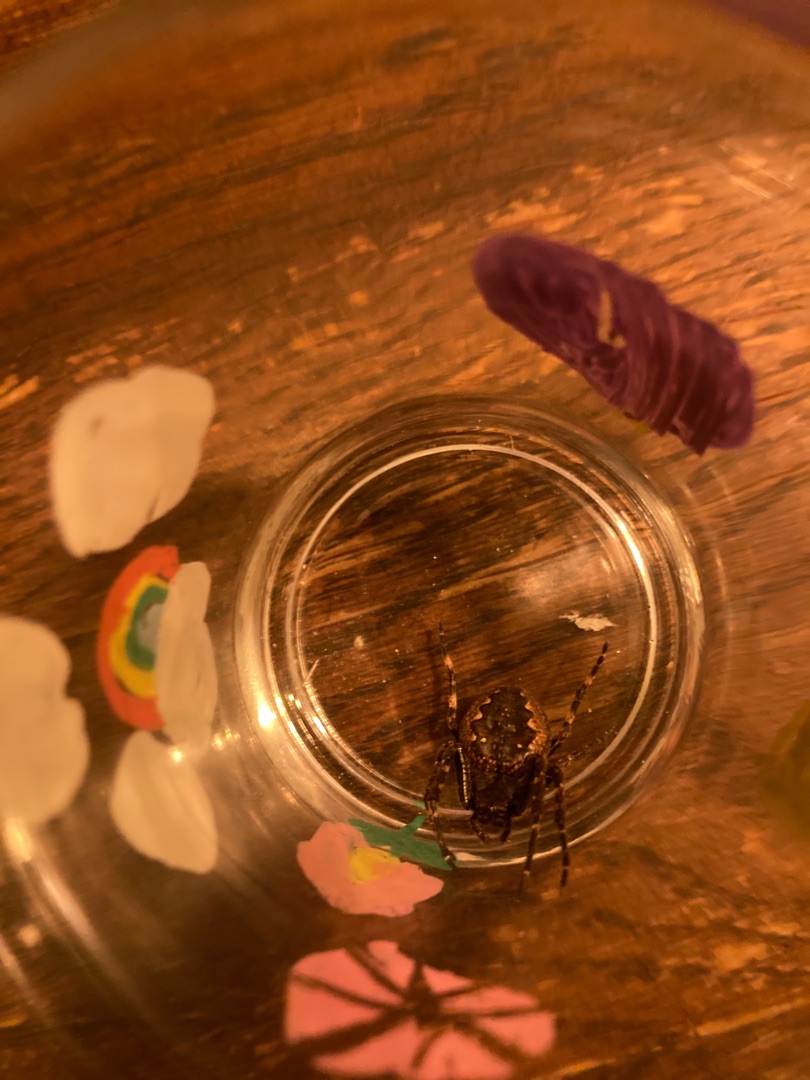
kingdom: Animalia
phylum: Arthropoda
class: Arachnida
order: Araneae
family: Araneidae
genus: Nuctenea
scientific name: Nuctenea umbratica
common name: Flad hjulspinder
